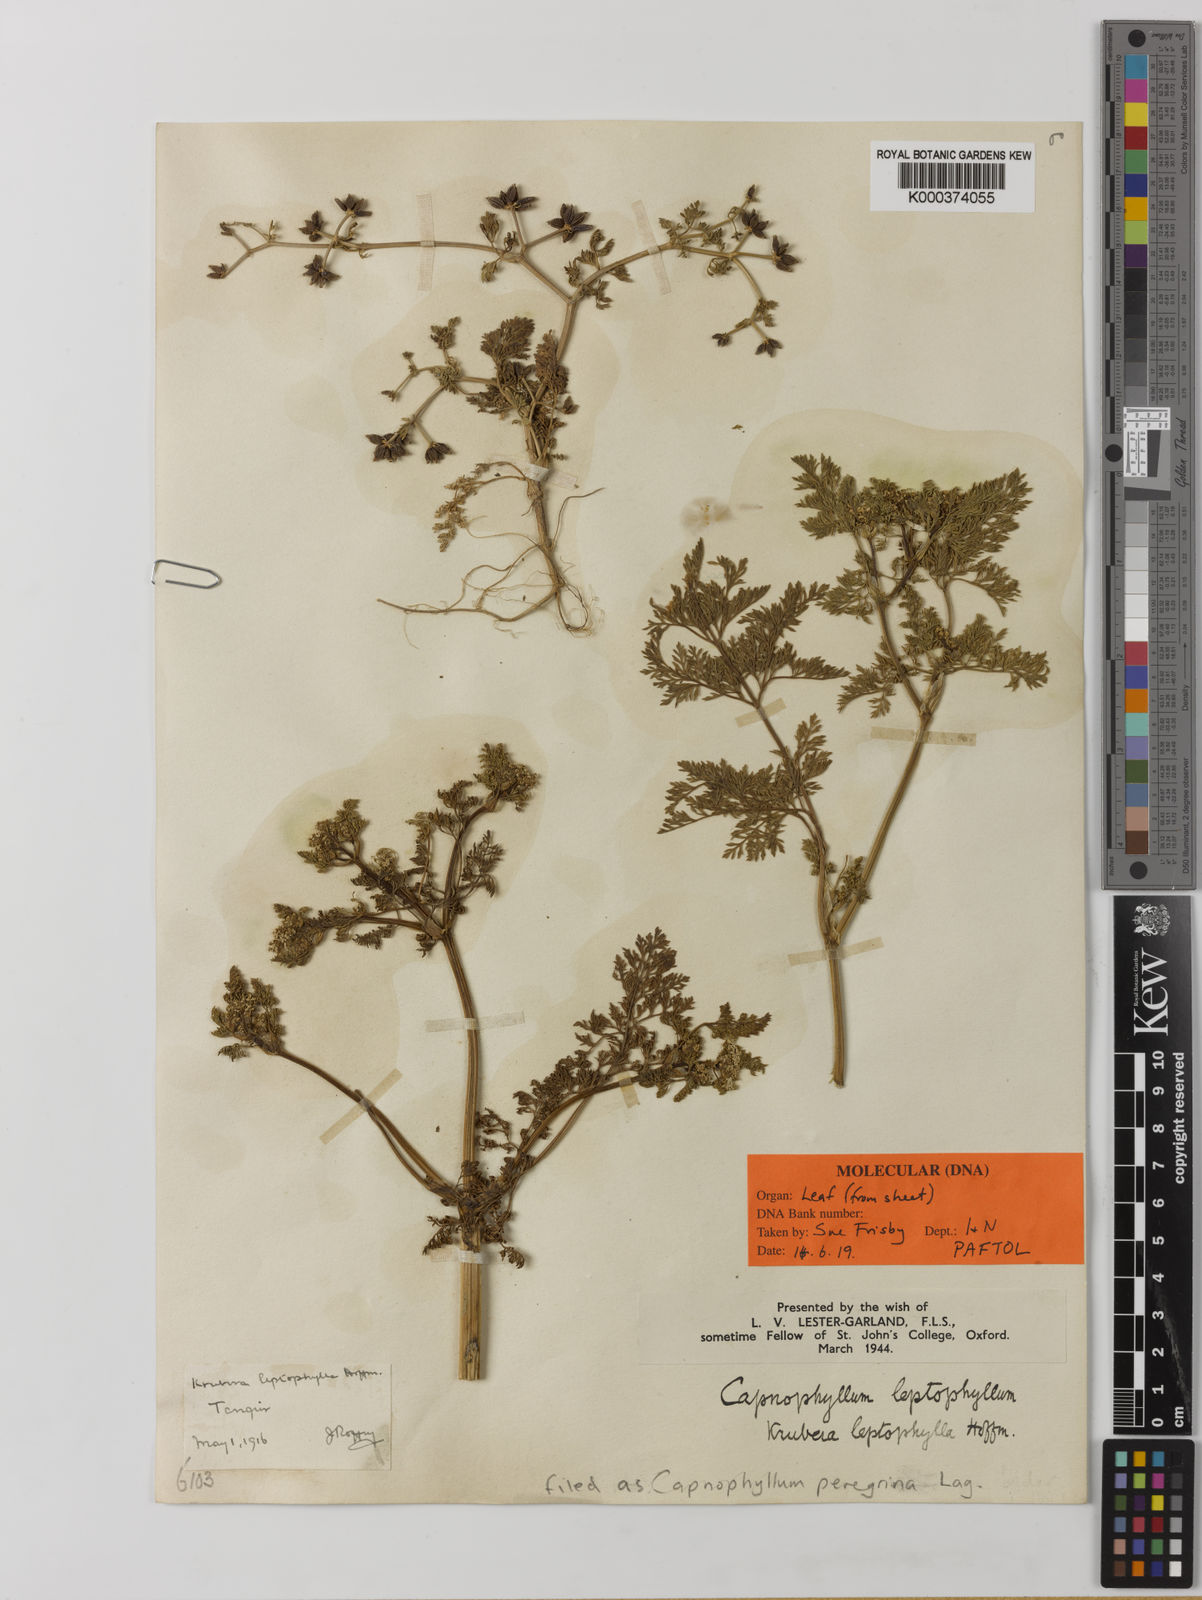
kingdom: Plantae
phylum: Tracheophyta
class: Magnoliopsida
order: Apiales
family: Apiaceae
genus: Capnophyllum
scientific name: Capnophyllum
